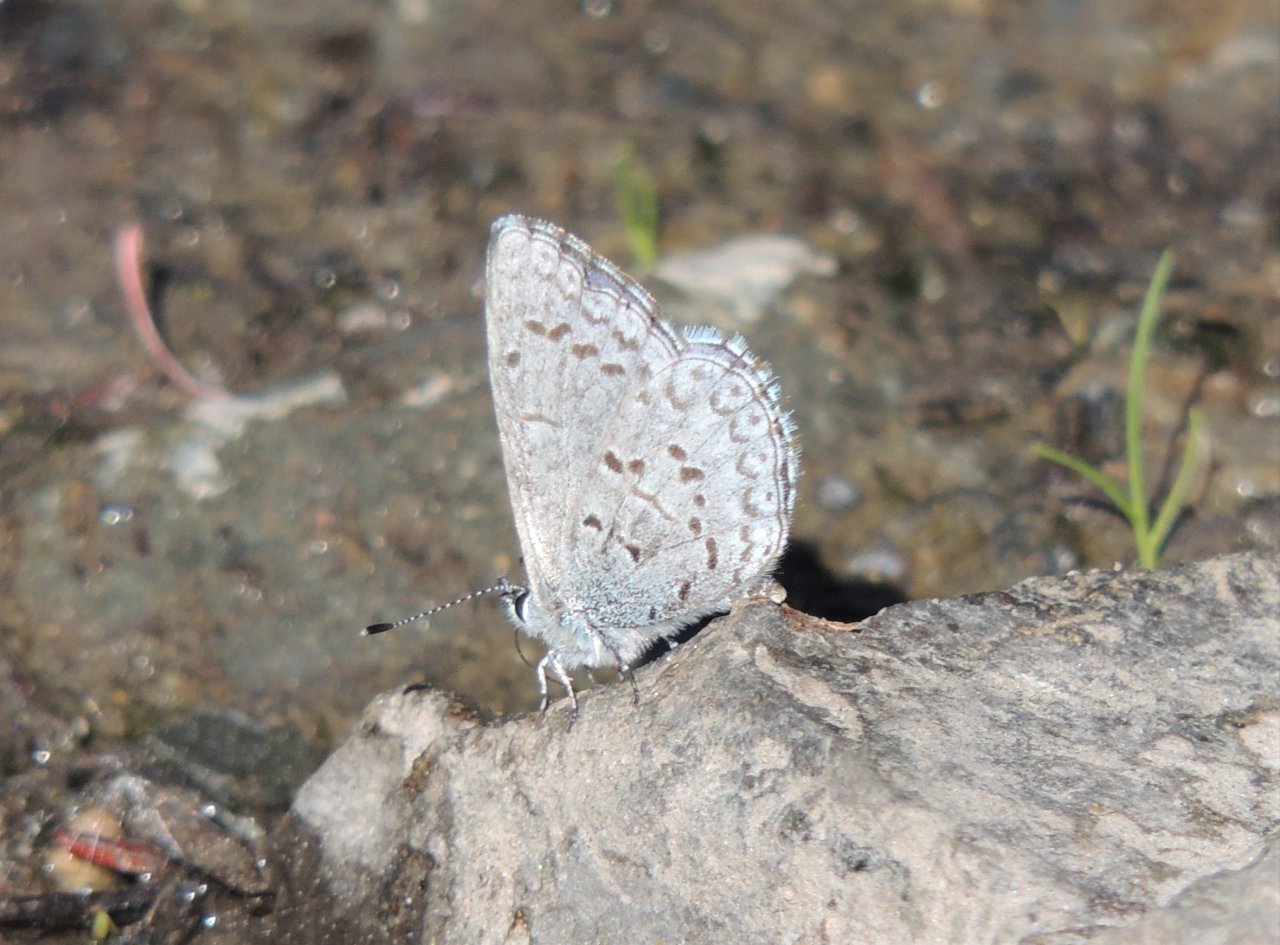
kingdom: Animalia
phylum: Arthropoda
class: Insecta
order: Lepidoptera
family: Lycaenidae
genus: Celastrina
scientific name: Celastrina ladon
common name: Echo Azure
